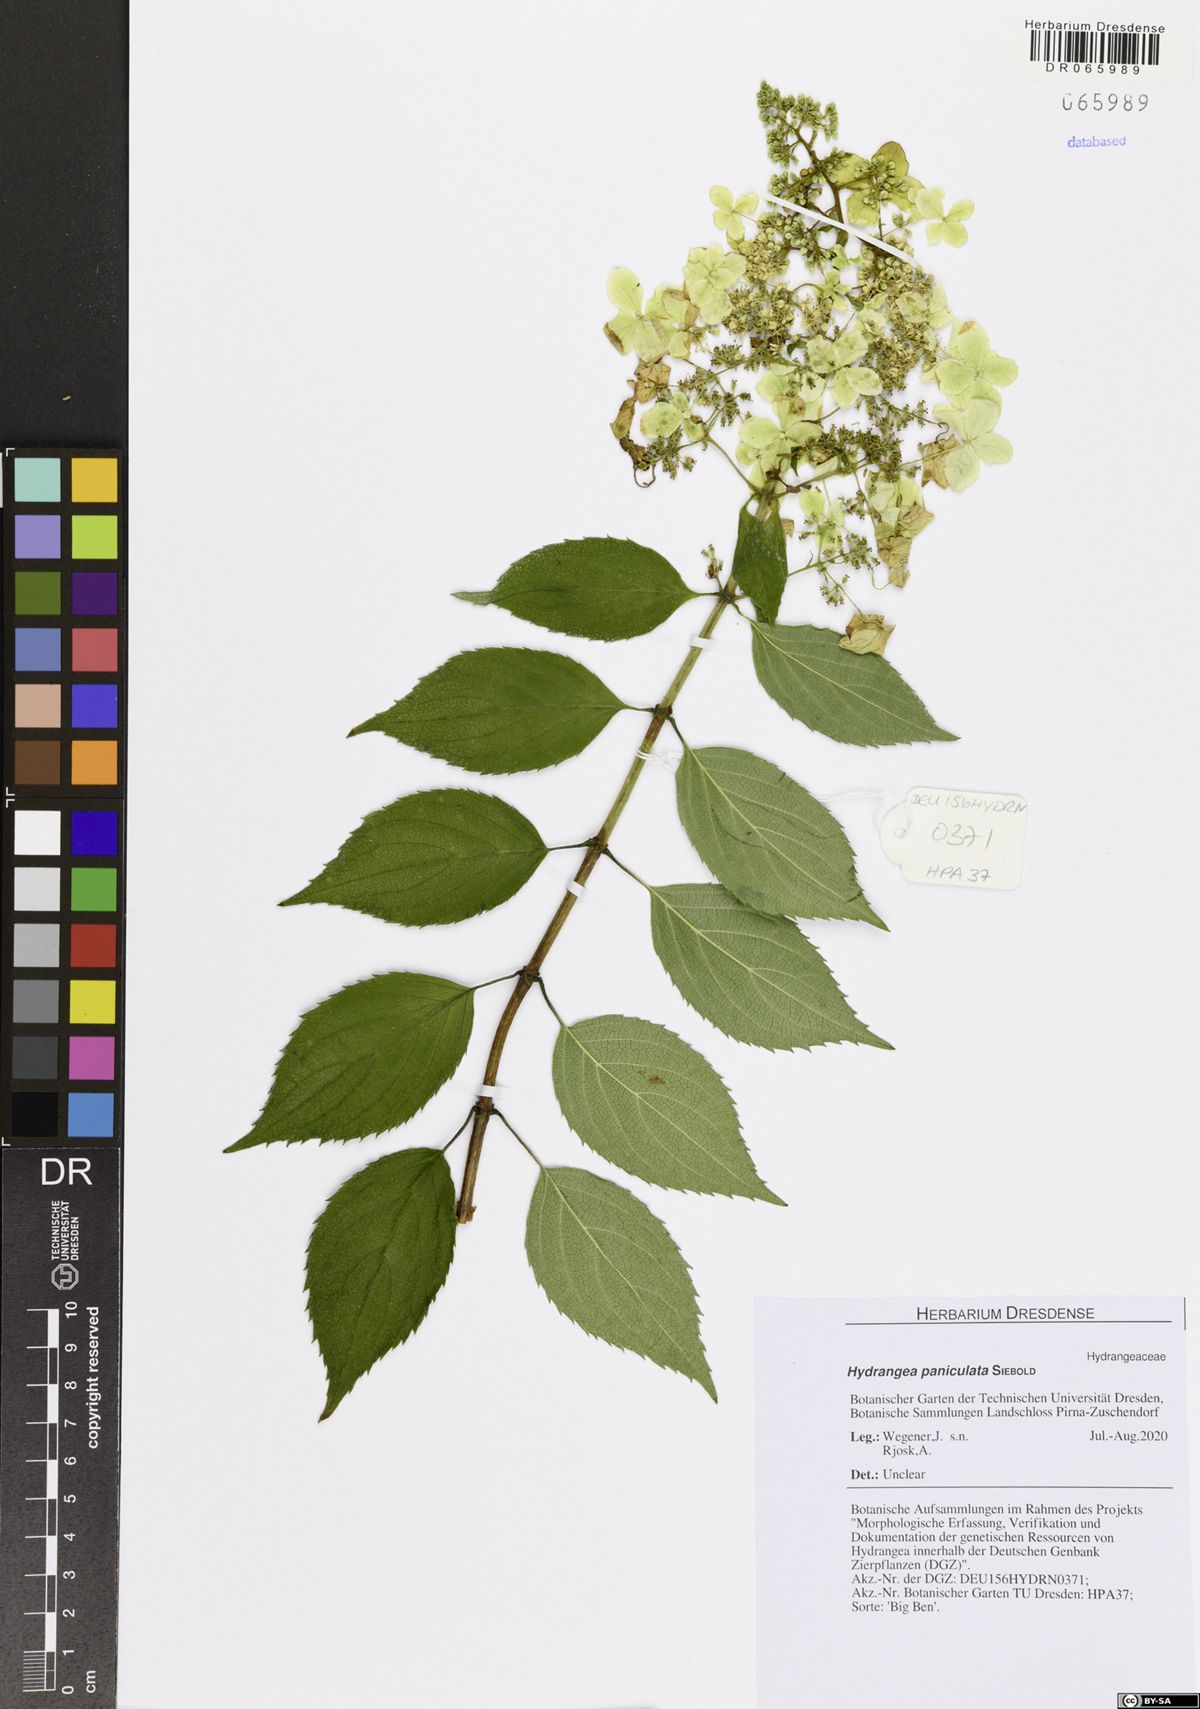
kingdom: Plantae
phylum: Tracheophyta
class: Magnoliopsida
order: Cornales
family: Hydrangeaceae
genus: Hydrangea
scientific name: Hydrangea paniculata
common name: Panicled hydrangea
